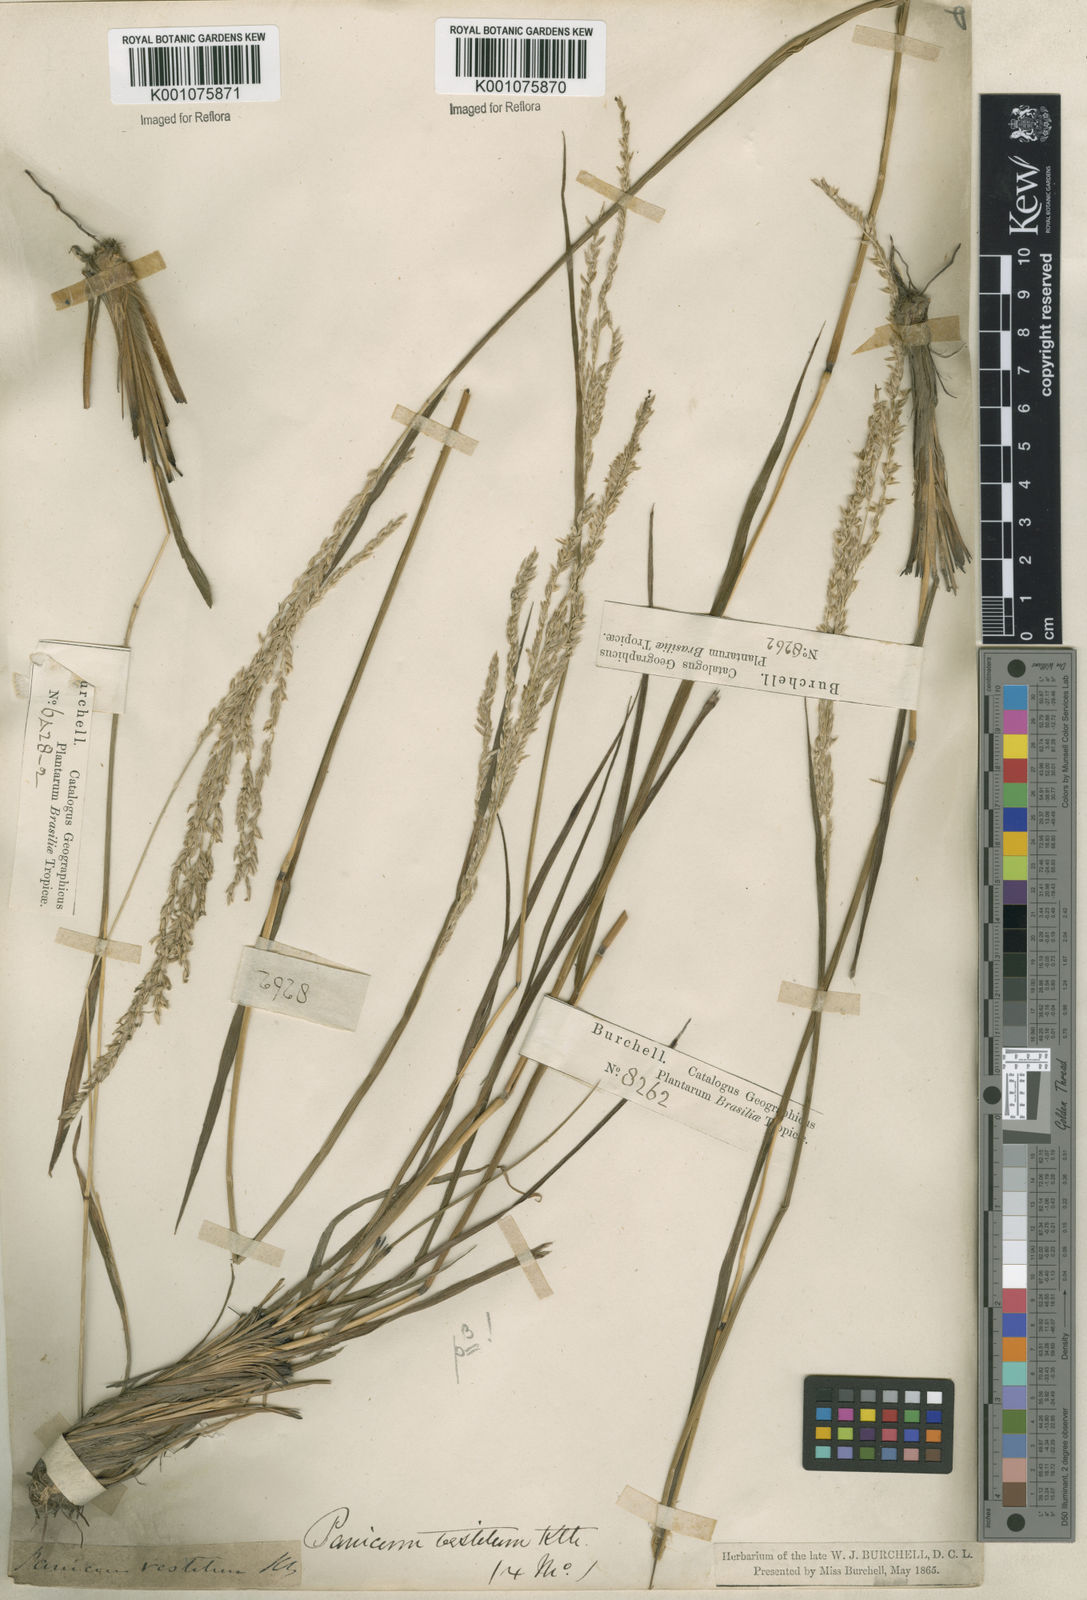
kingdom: Plantae
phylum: Tracheophyta
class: Liliopsida
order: Poales
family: Poaceae
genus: Digitaria
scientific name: Digitaria neesiana
